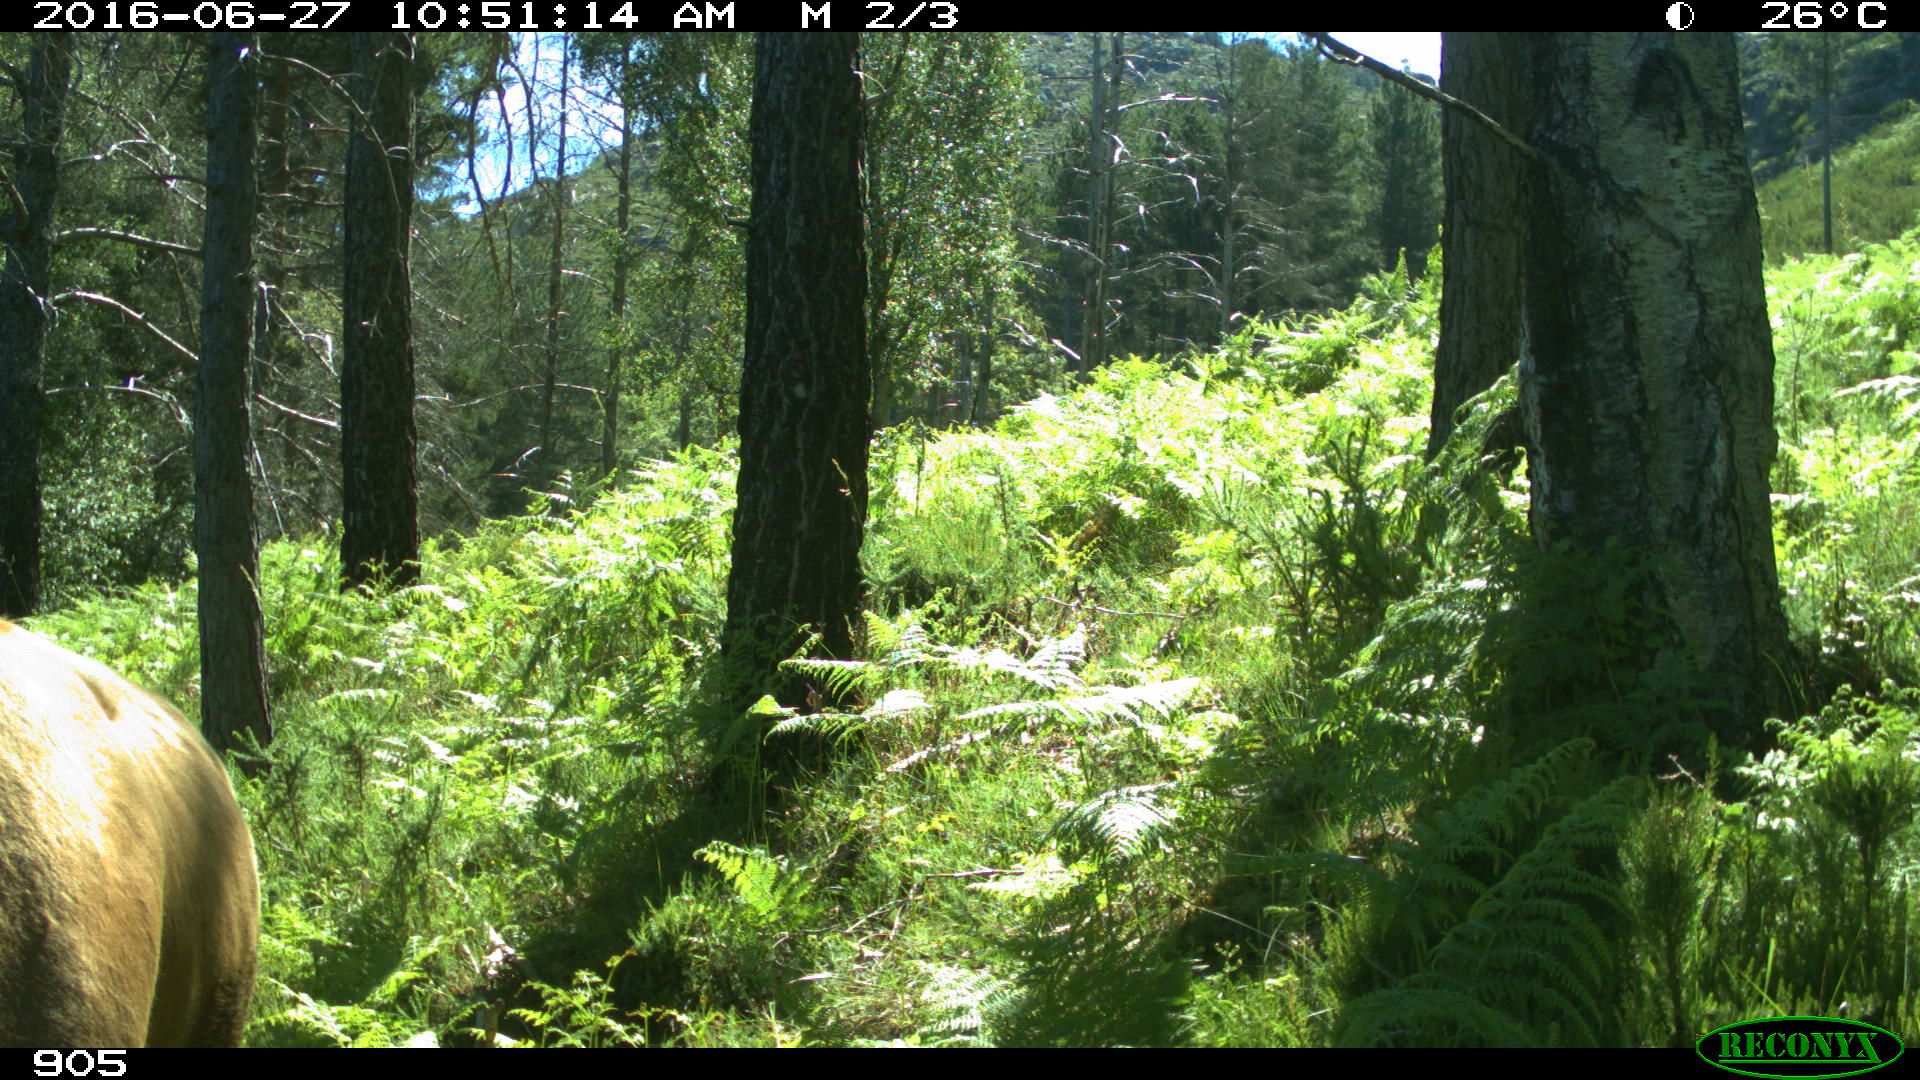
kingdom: Animalia
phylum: Chordata
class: Mammalia
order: Artiodactyla
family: Bovidae
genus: Bos
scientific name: Bos taurus
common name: Domesticated cattle
